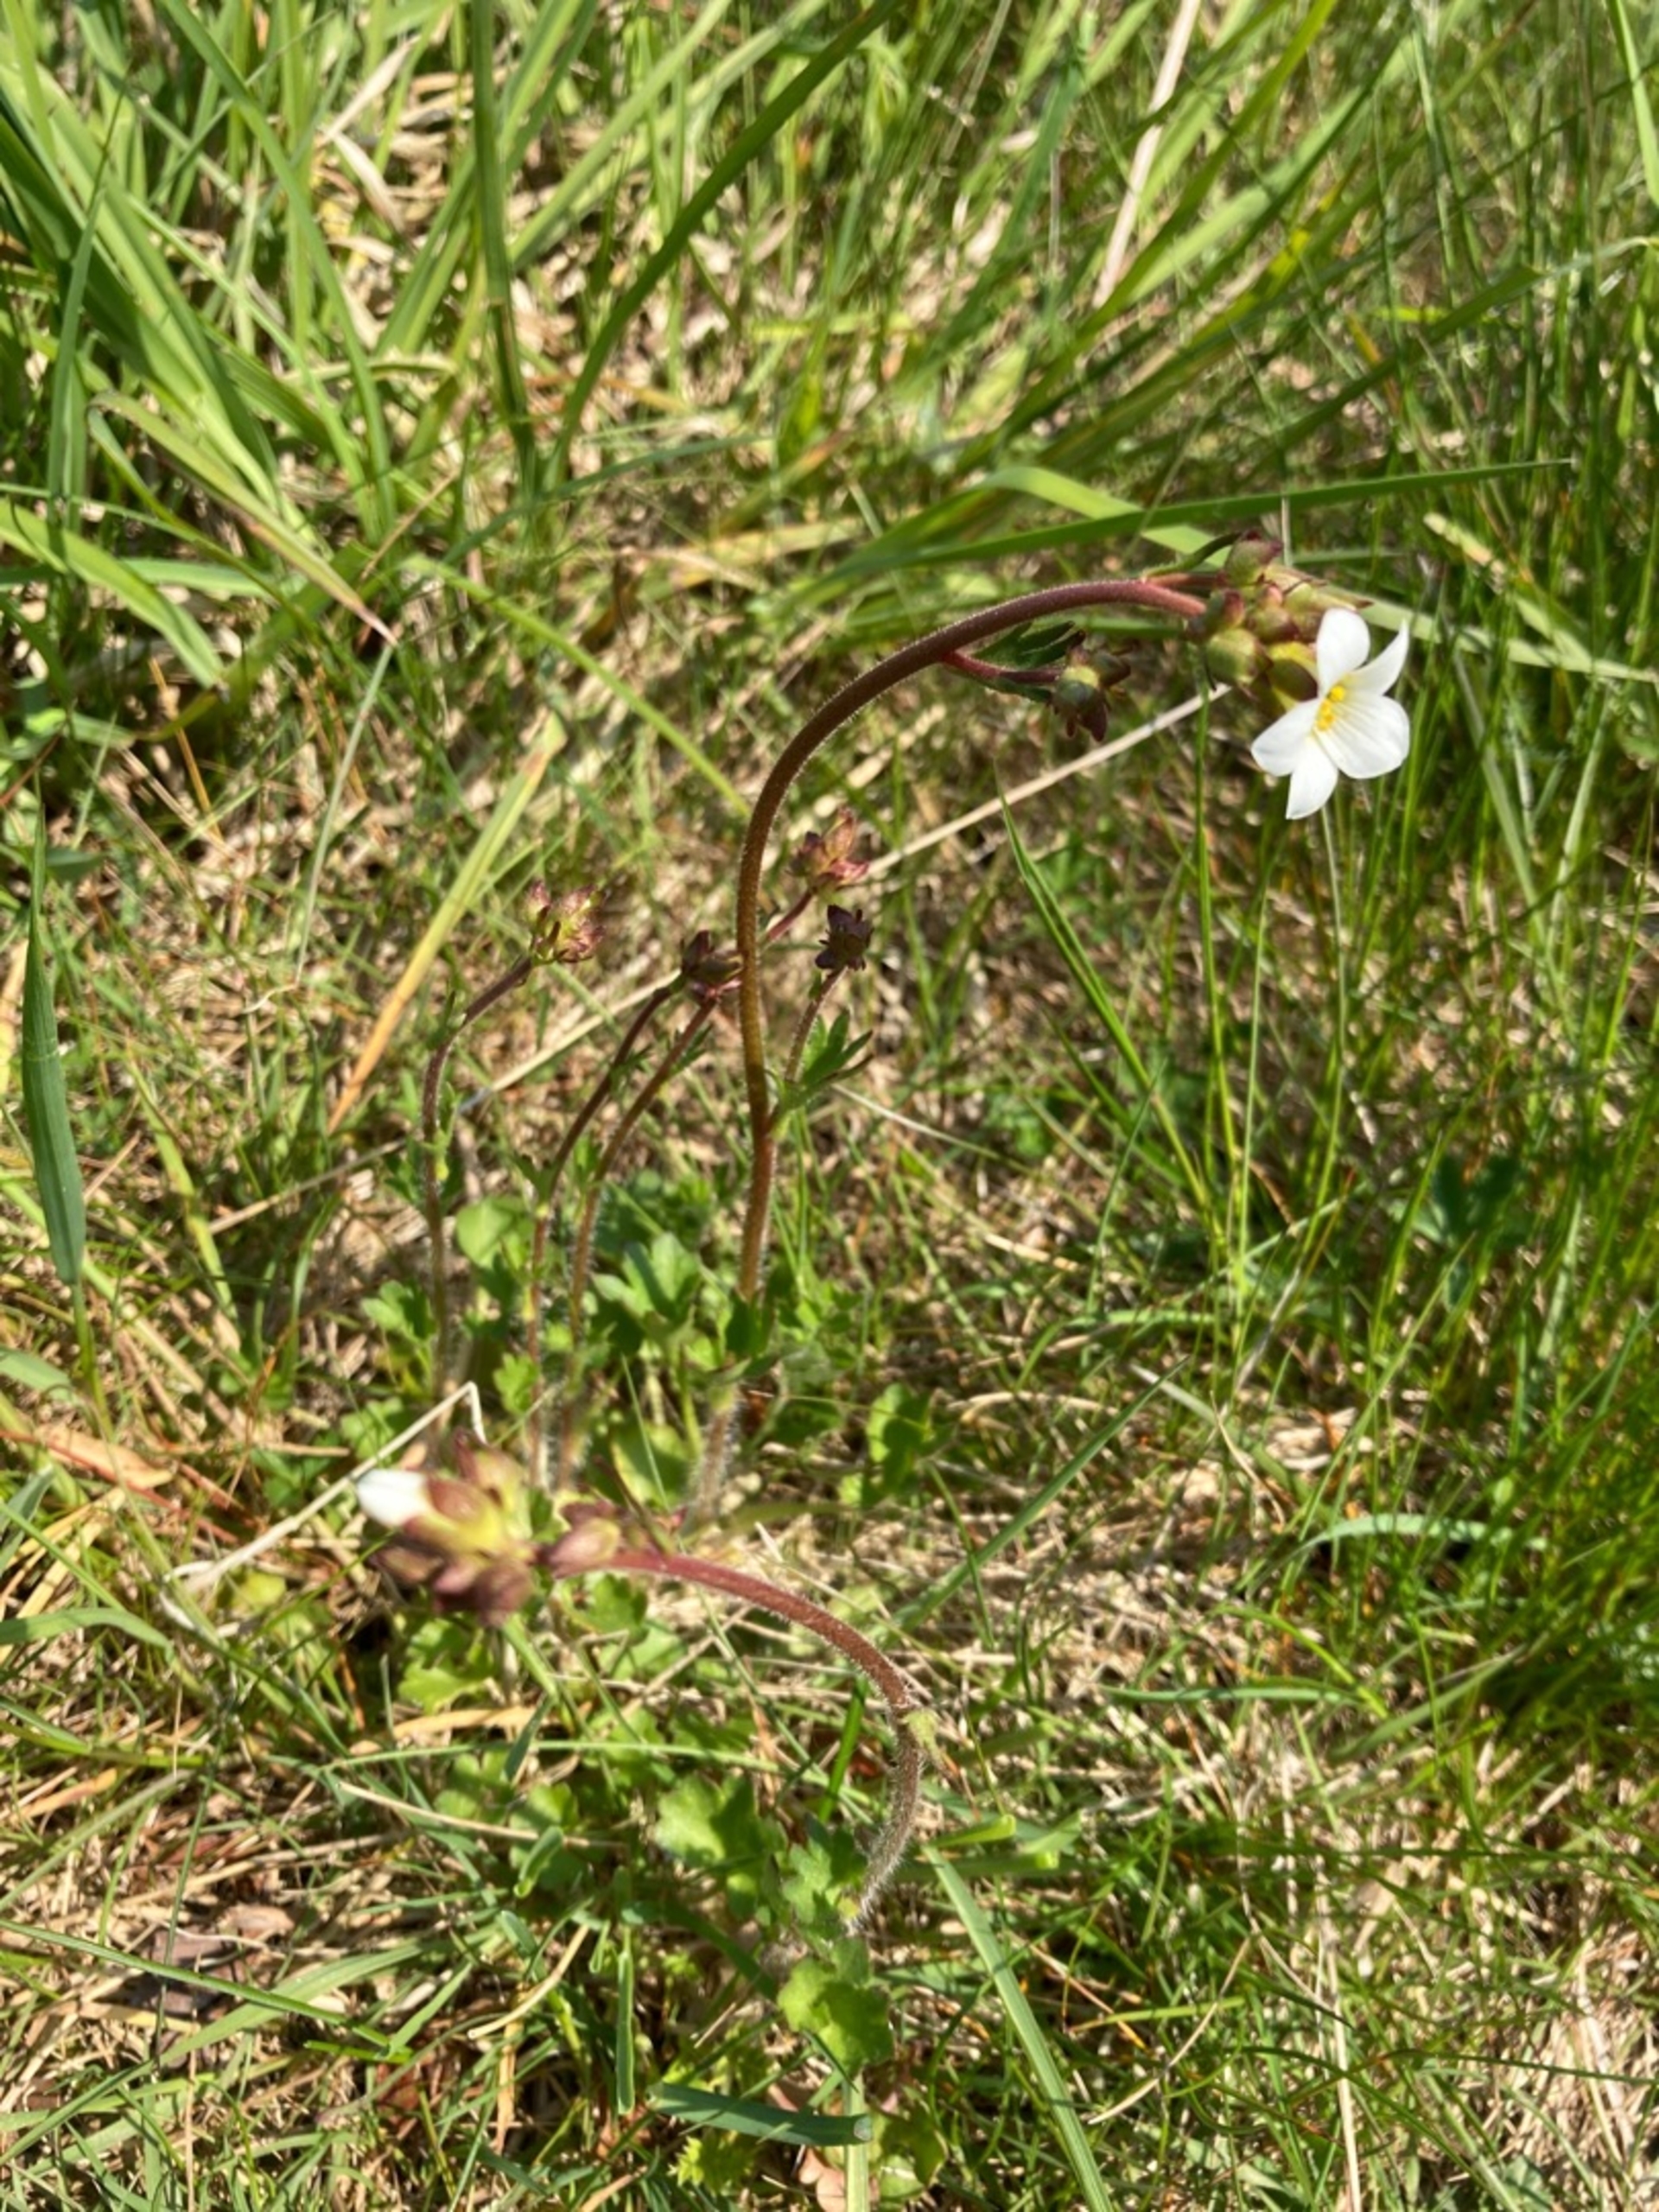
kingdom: Plantae
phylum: Tracheophyta
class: Magnoliopsida
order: Saxifragales
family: Saxifragaceae
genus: Saxifraga
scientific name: Saxifraga granulata
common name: Kornet stenbræk
